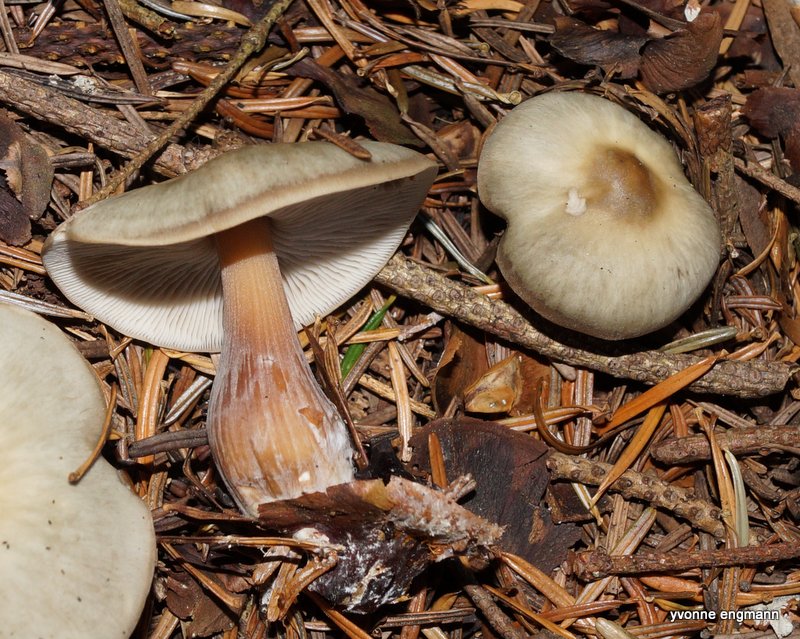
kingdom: Fungi
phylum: Basidiomycota
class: Agaricomycetes
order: Agaricales
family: Omphalotaceae
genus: Rhodocollybia
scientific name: Rhodocollybia asema
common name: horngrå fladhat
